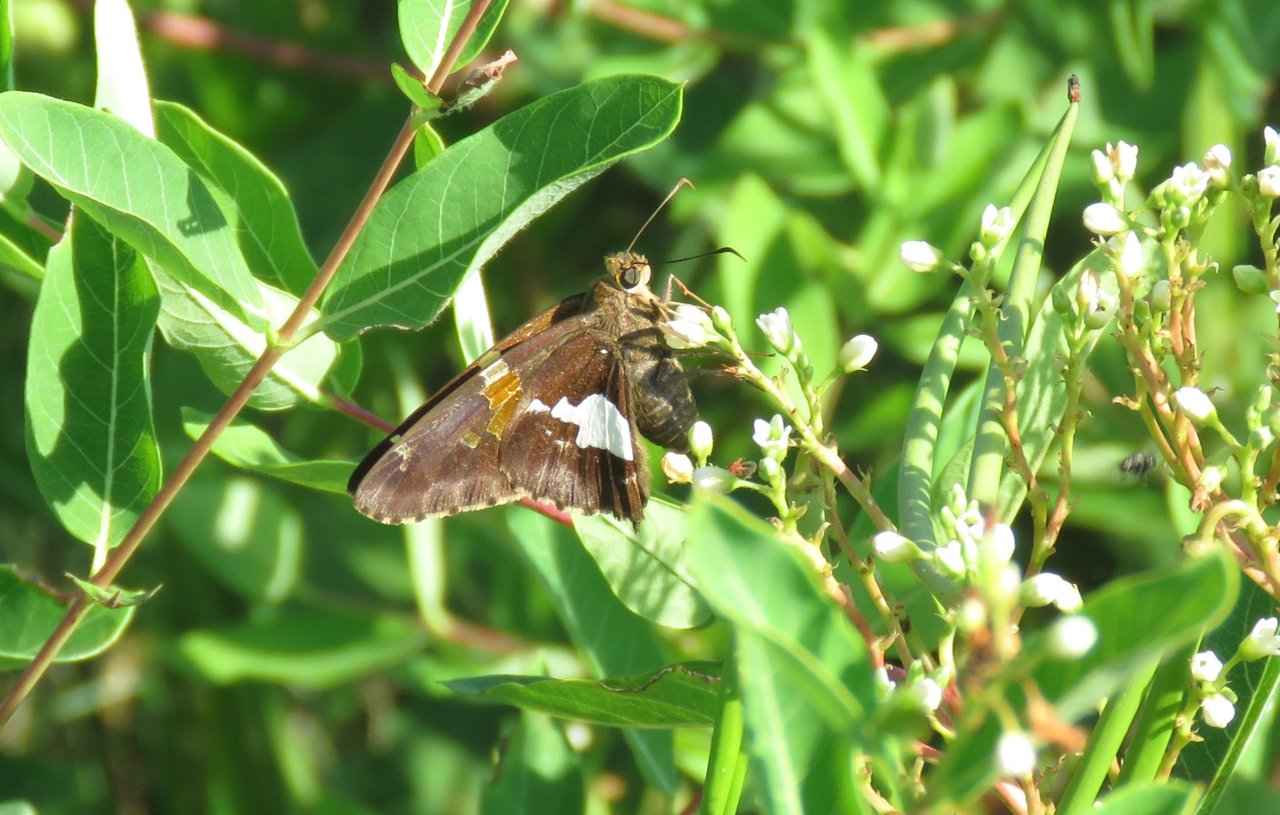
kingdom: Animalia
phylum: Arthropoda
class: Insecta
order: Lepidoptera
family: Hesperiidae
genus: Epargyreus
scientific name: Epargyreus clarus
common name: Silver-spotted Skipper
